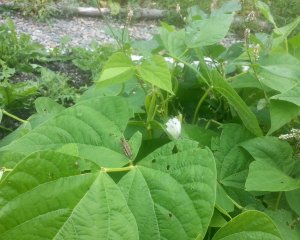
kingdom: Animalia
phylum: Arthropoda
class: Insecta
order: Lepidoptera
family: Pieridae
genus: Pieris
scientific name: Pieris rapae
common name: Cabbage White
